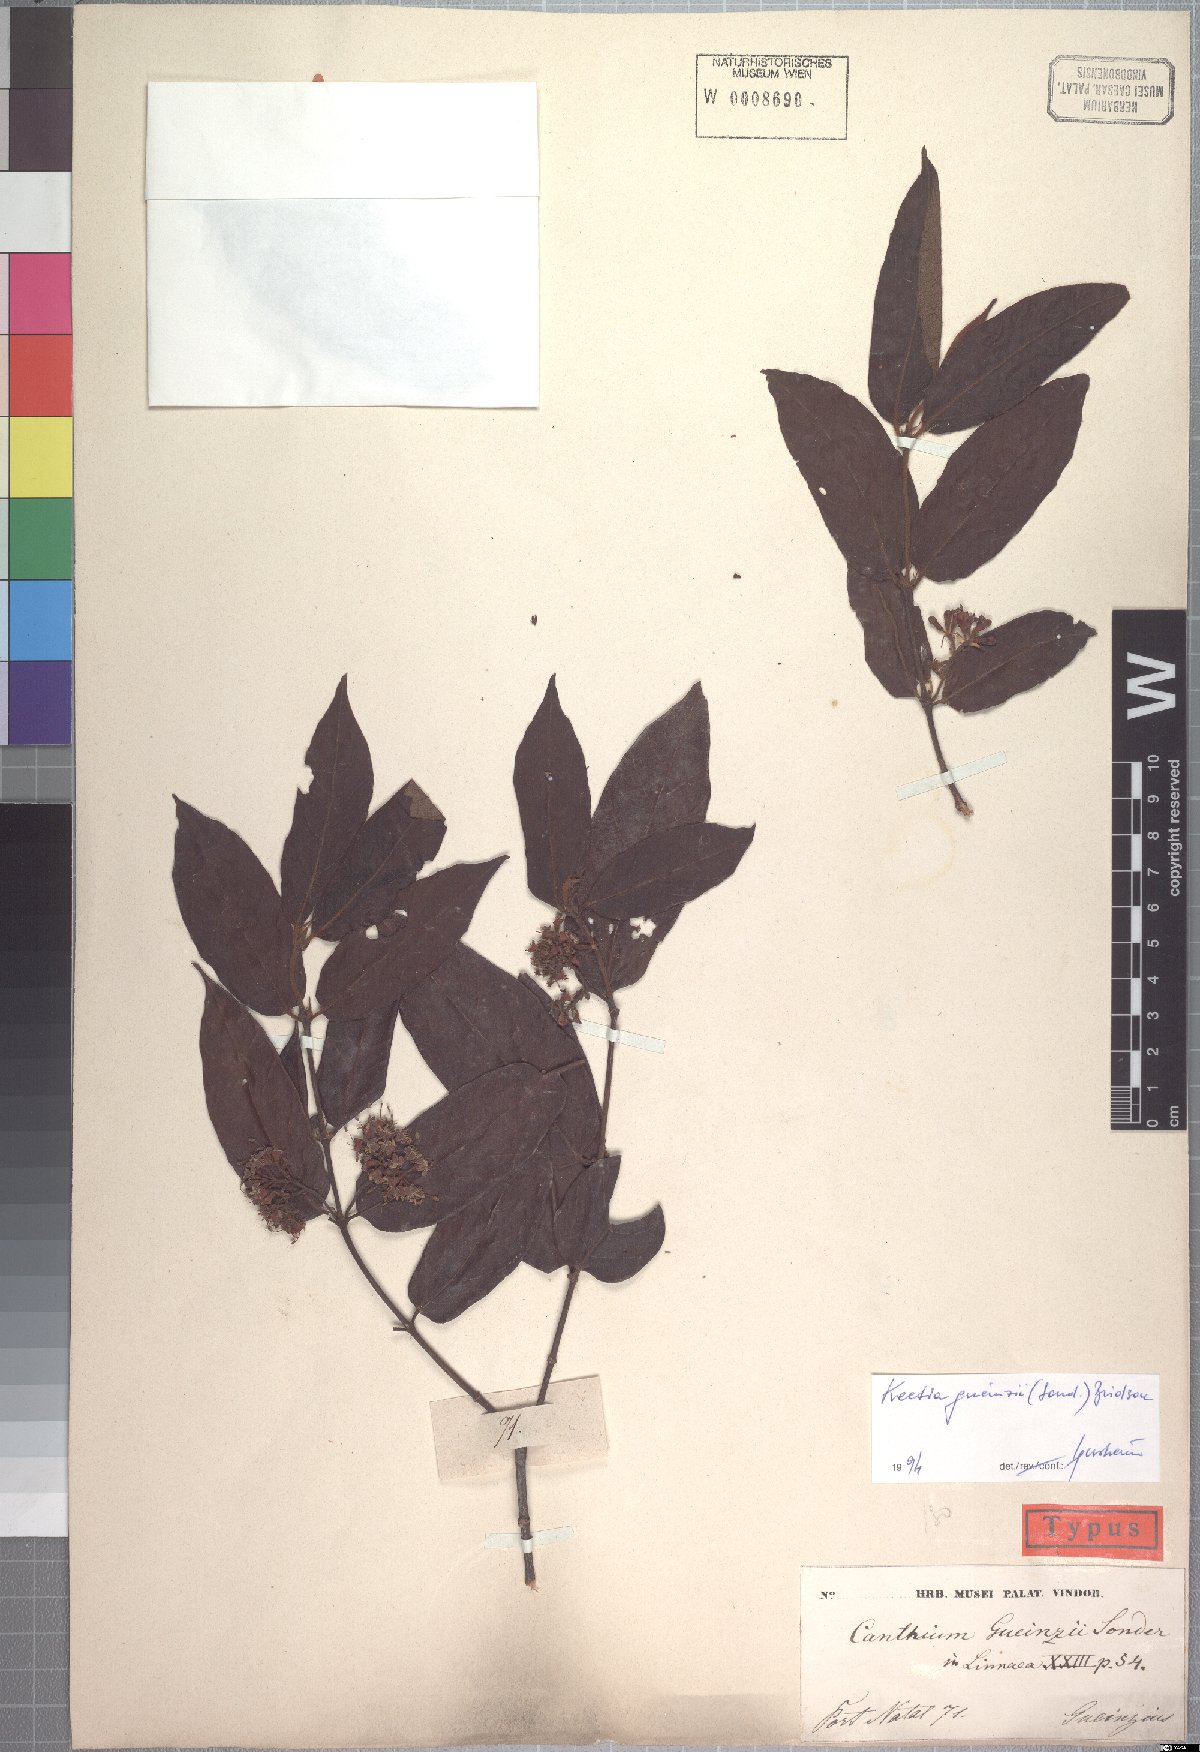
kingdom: Plantae
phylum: Tracheophyta
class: Magnoliopsida
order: Gentianales
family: Rubiaceae
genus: Keetia
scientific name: Keetia gueinzii
